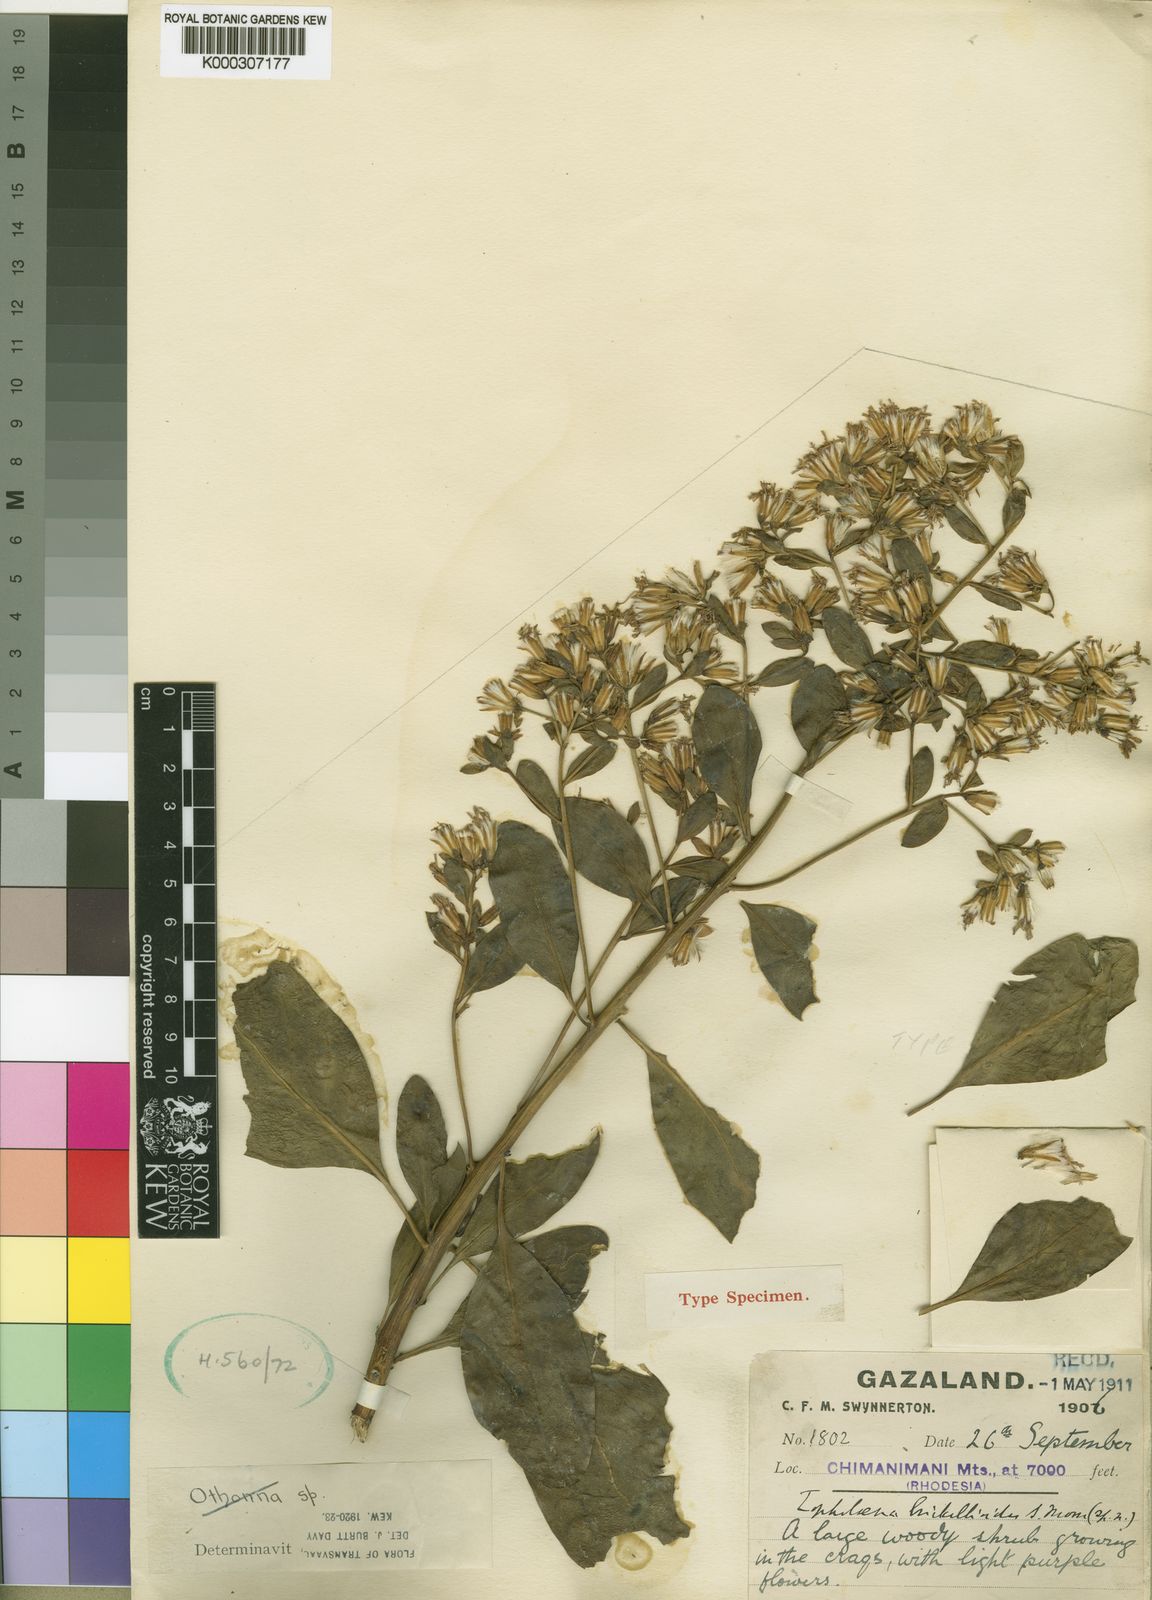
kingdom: Plantae
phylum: Tracheophyta
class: Magnoliopsida
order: Asterales
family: Asteraceae
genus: Lopholaena
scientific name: Lopholaena brickellioides
